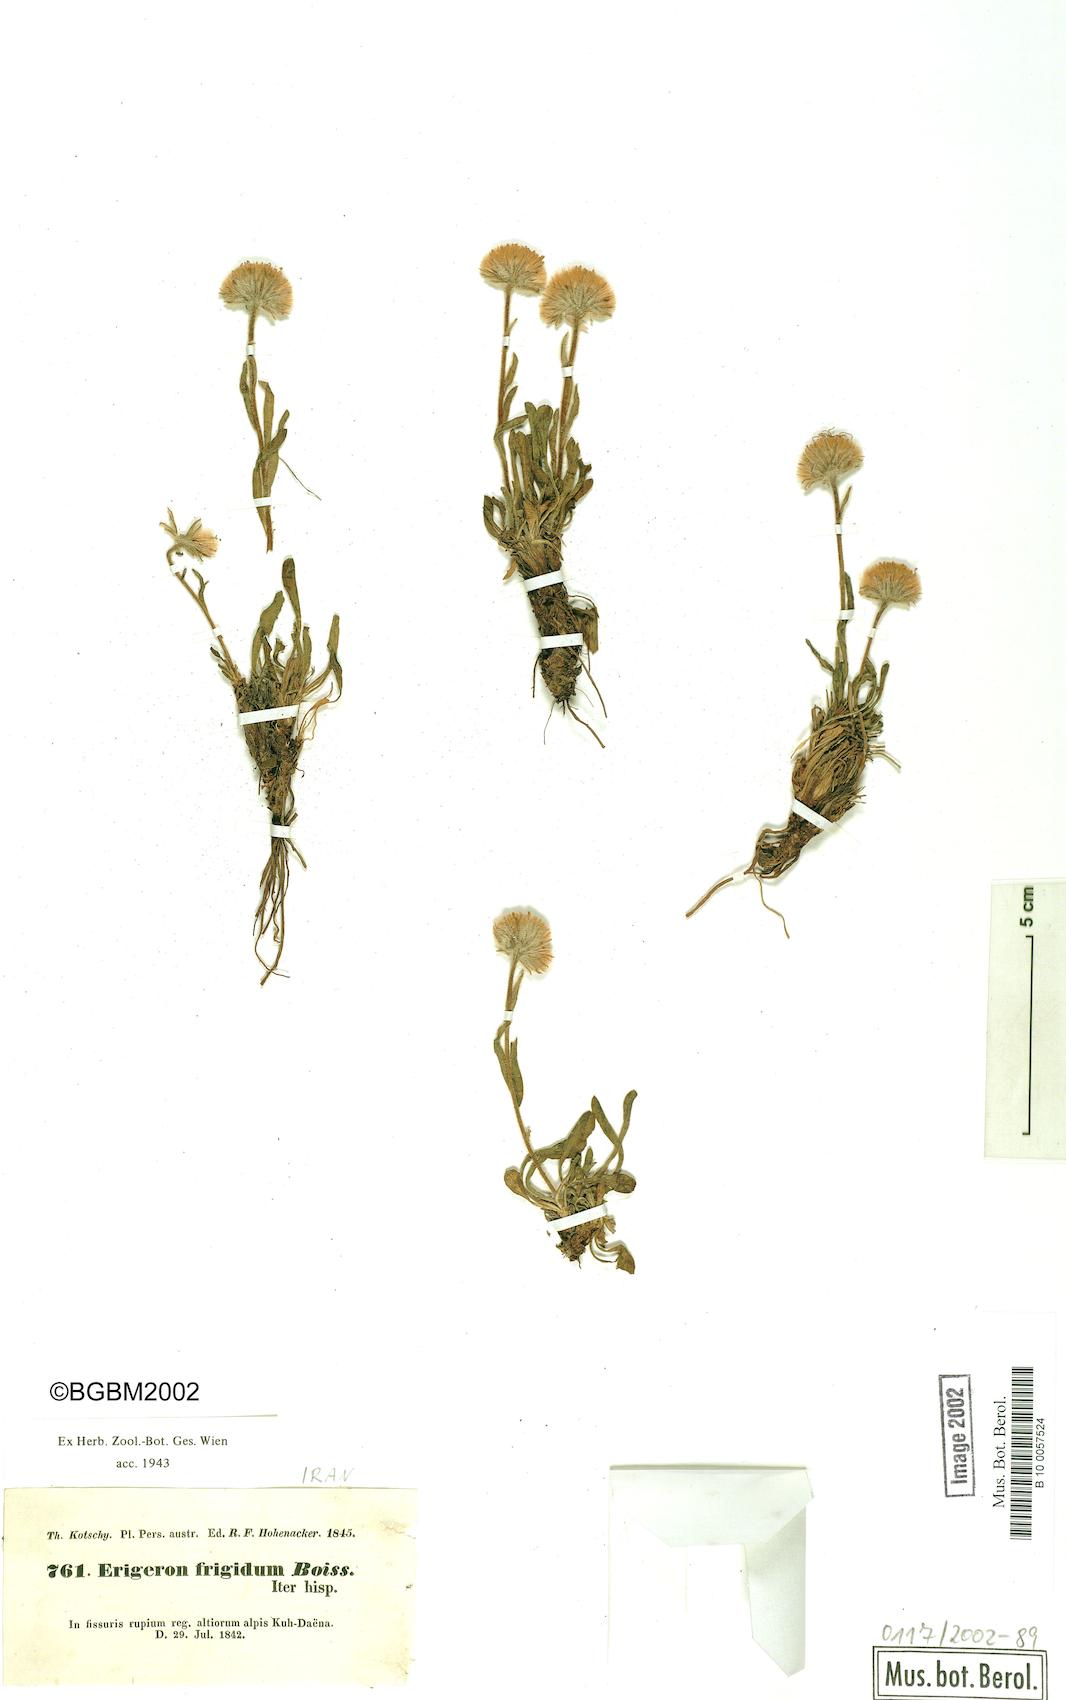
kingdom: Plantae
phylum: Tracheophyta
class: Magnoliopsida
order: Asterales
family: Asteraceae
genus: Erigeron
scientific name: Erigeron daenensis
